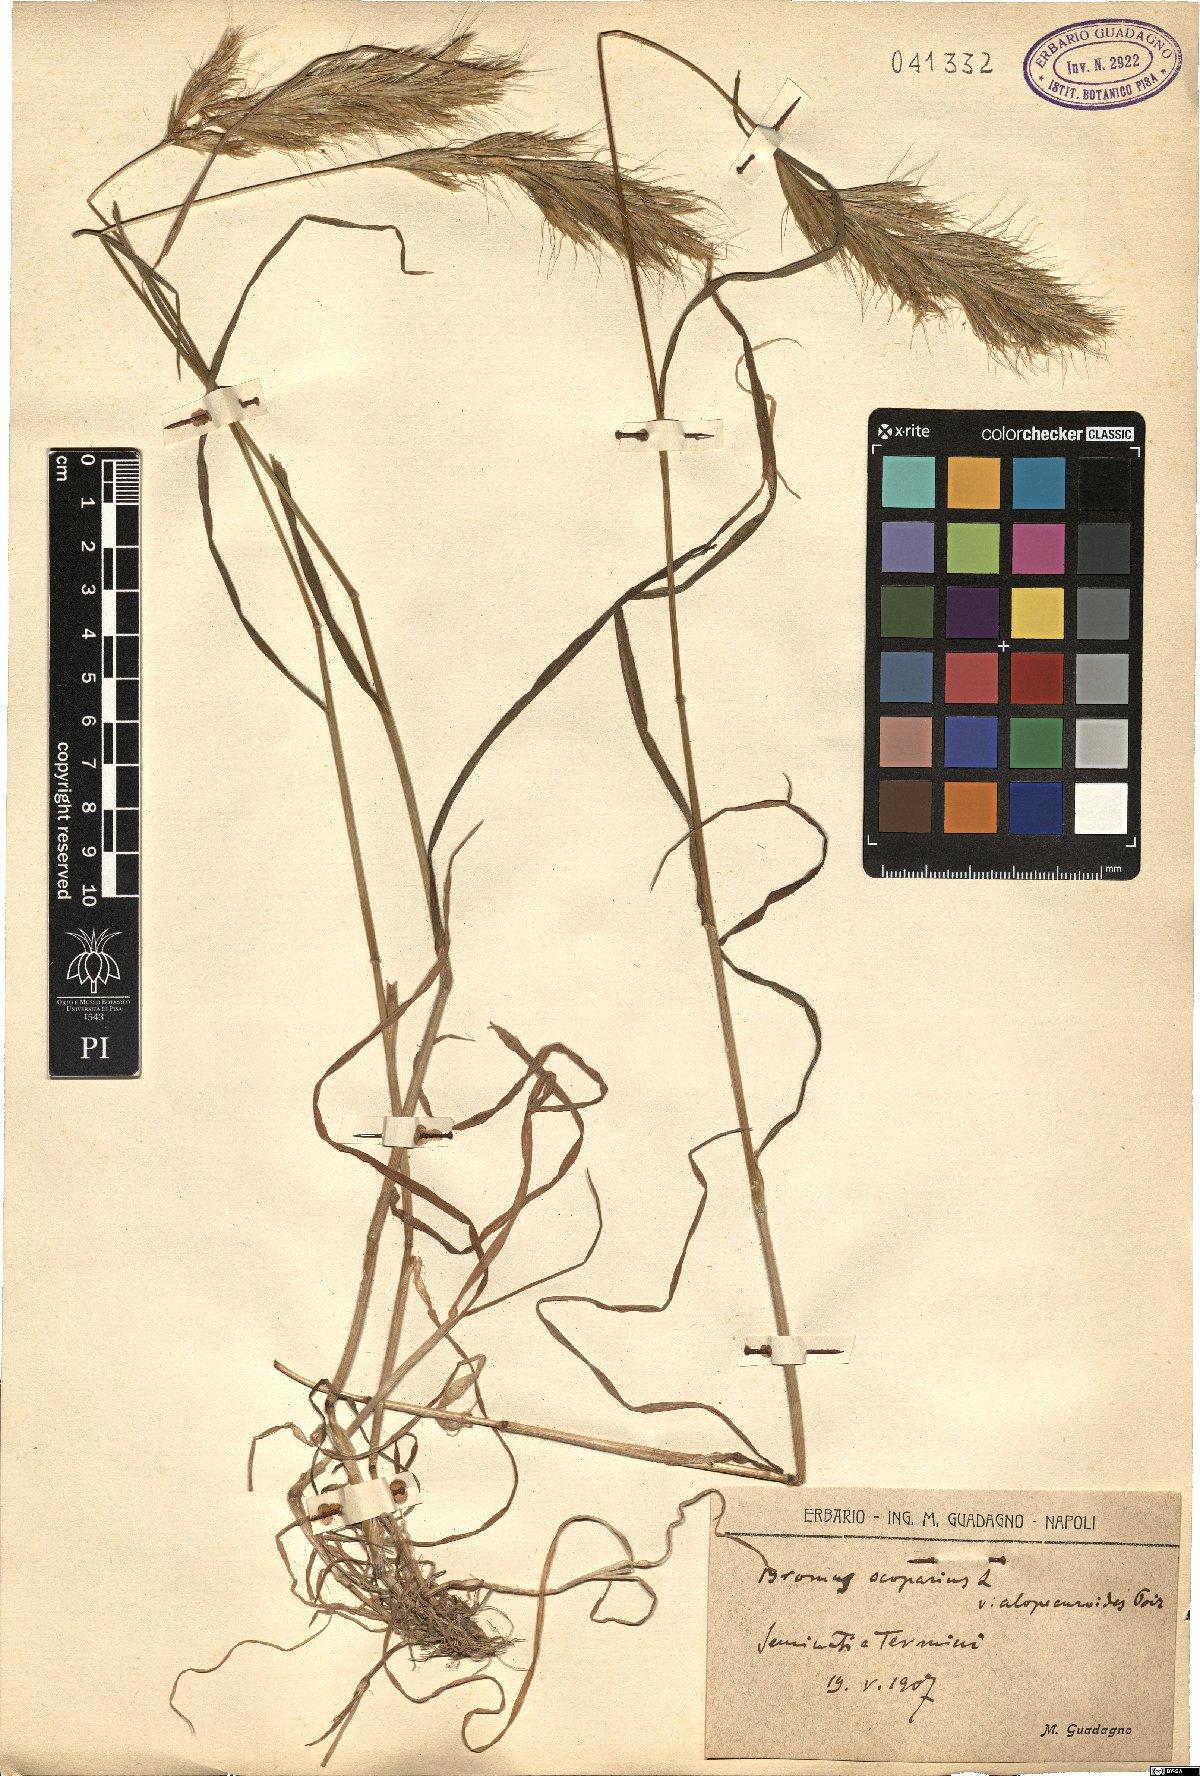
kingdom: Plantae
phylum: Tracheophyta
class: Liliopsida
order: Poales
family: Poaceae
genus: Bromus
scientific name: Bromus scoparius
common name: Broom brome
